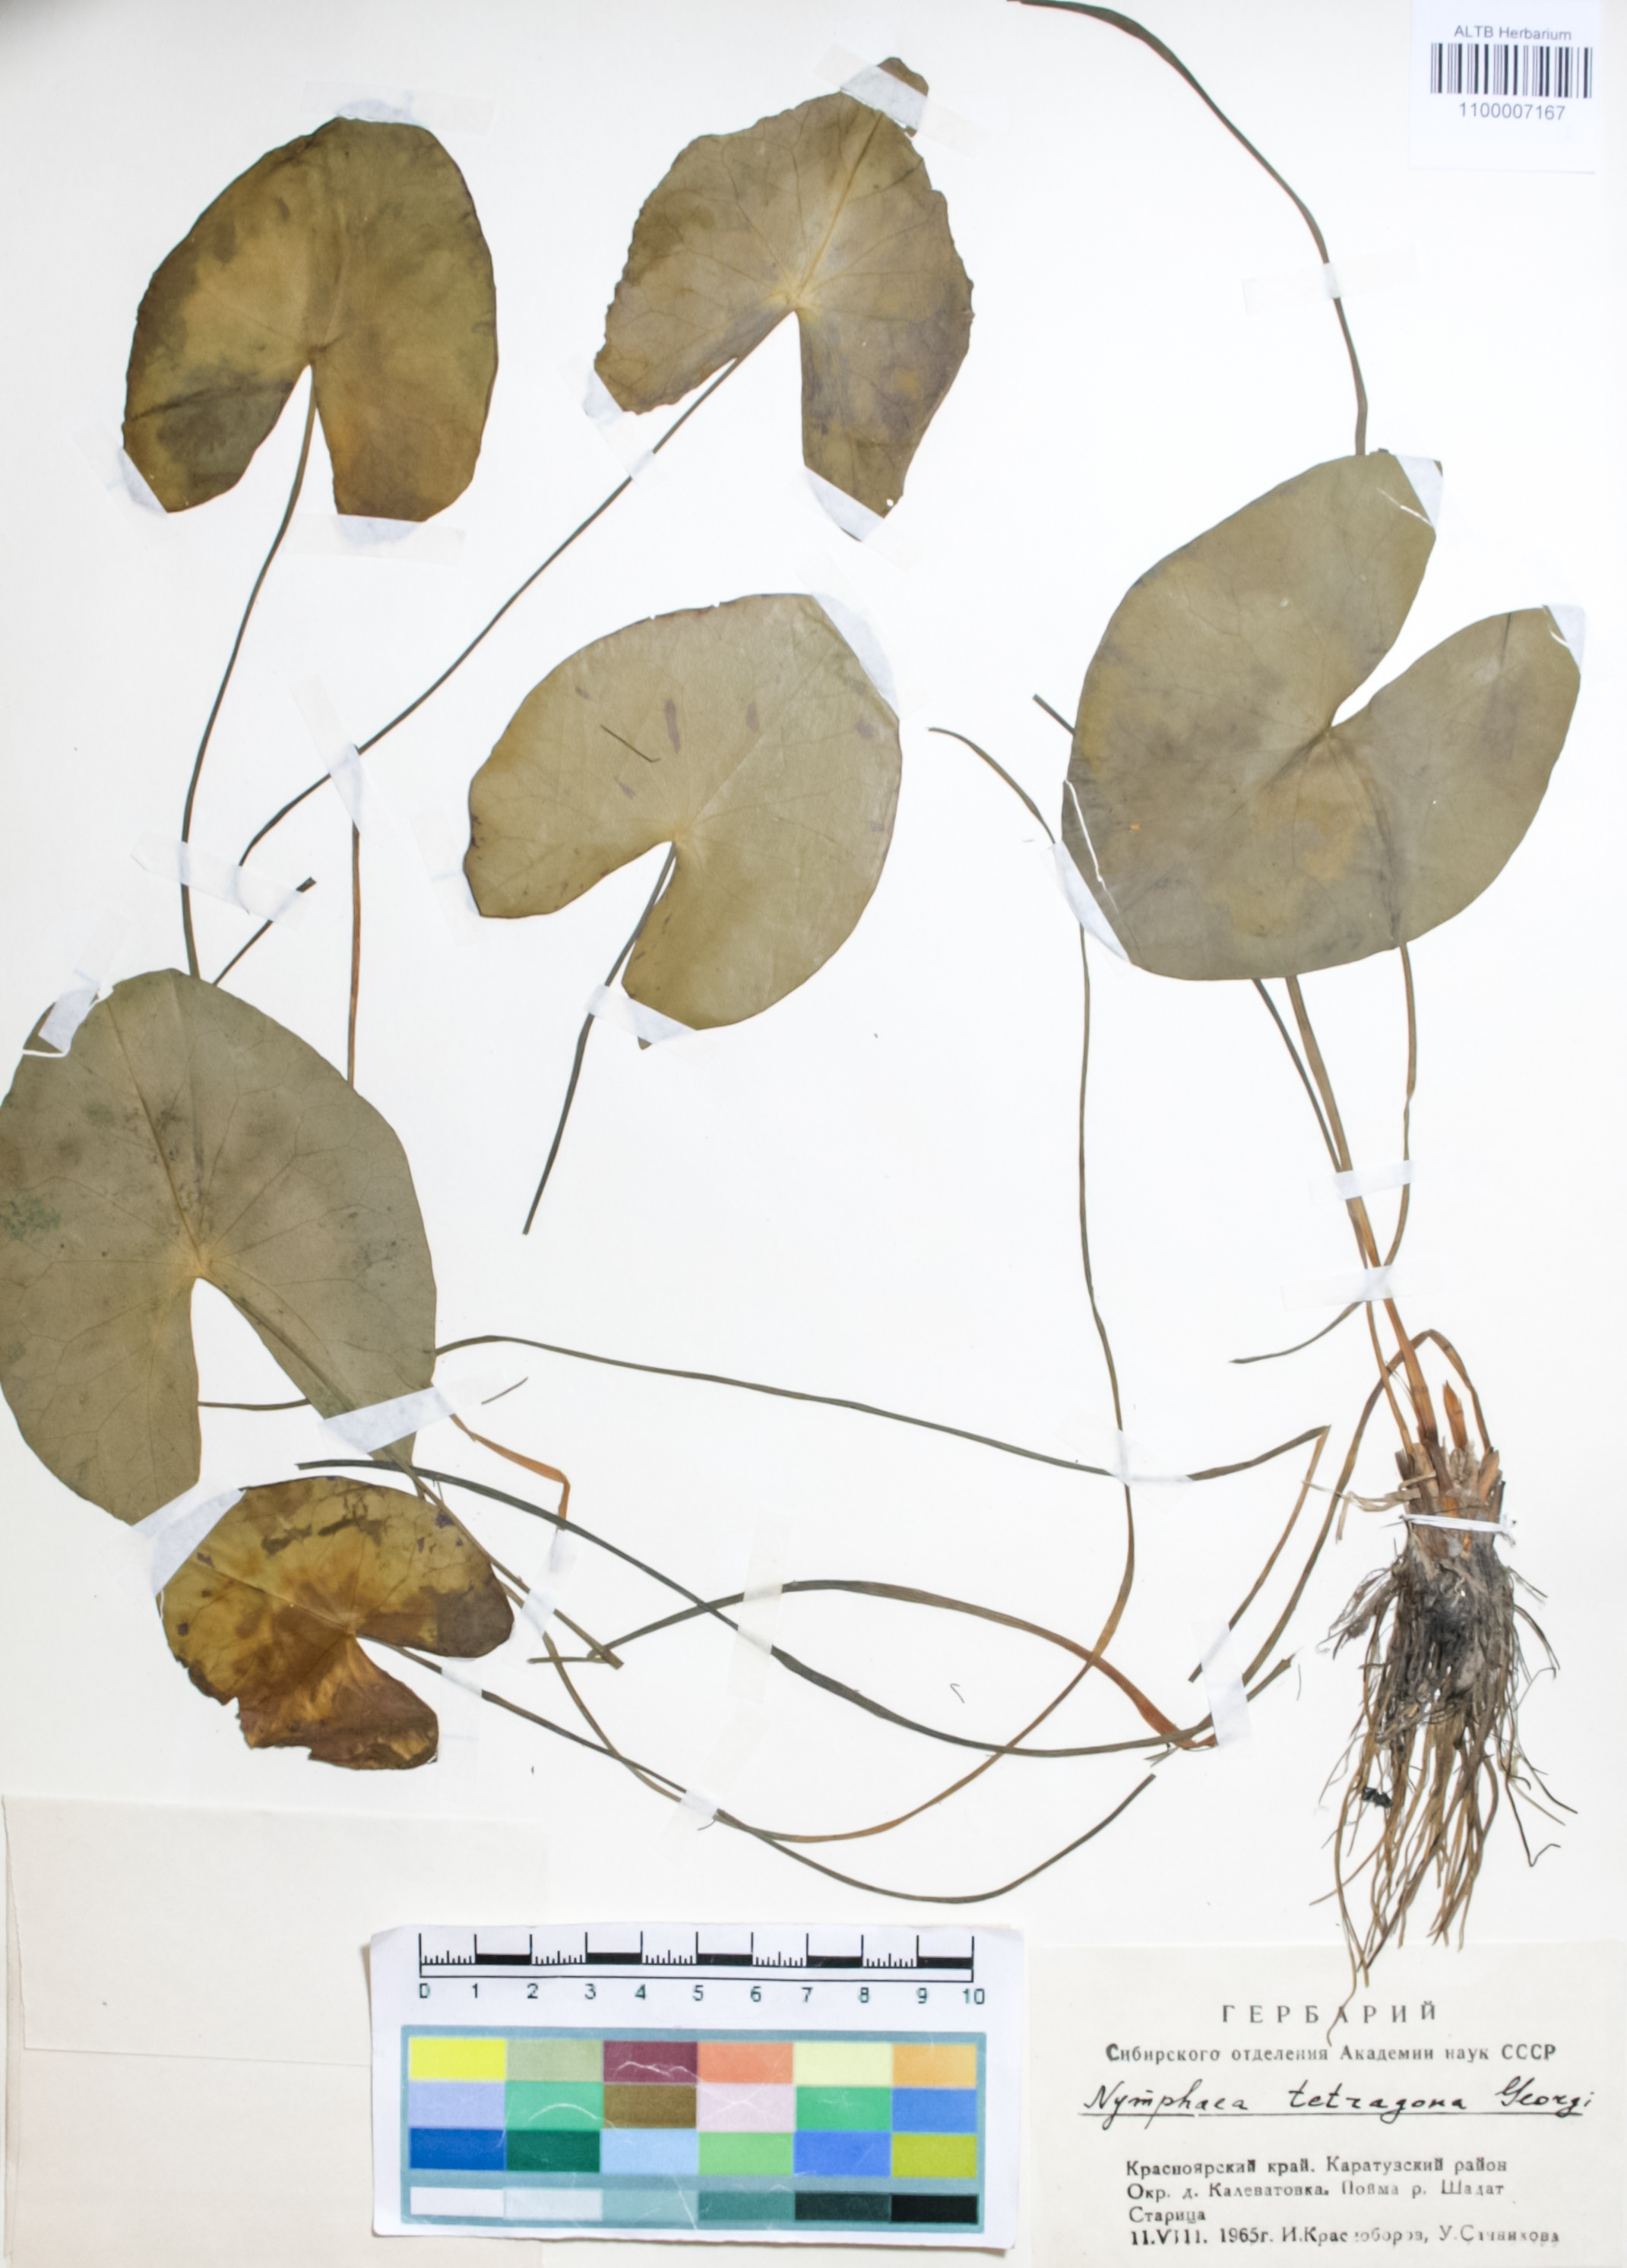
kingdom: Plantae
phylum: Tracheophyta
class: Magnoliopsida
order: Nymphaeales
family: Nymphaeaceae
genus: Nymphaea
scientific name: Nymphaea tetragona
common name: Pygmy water-lily
